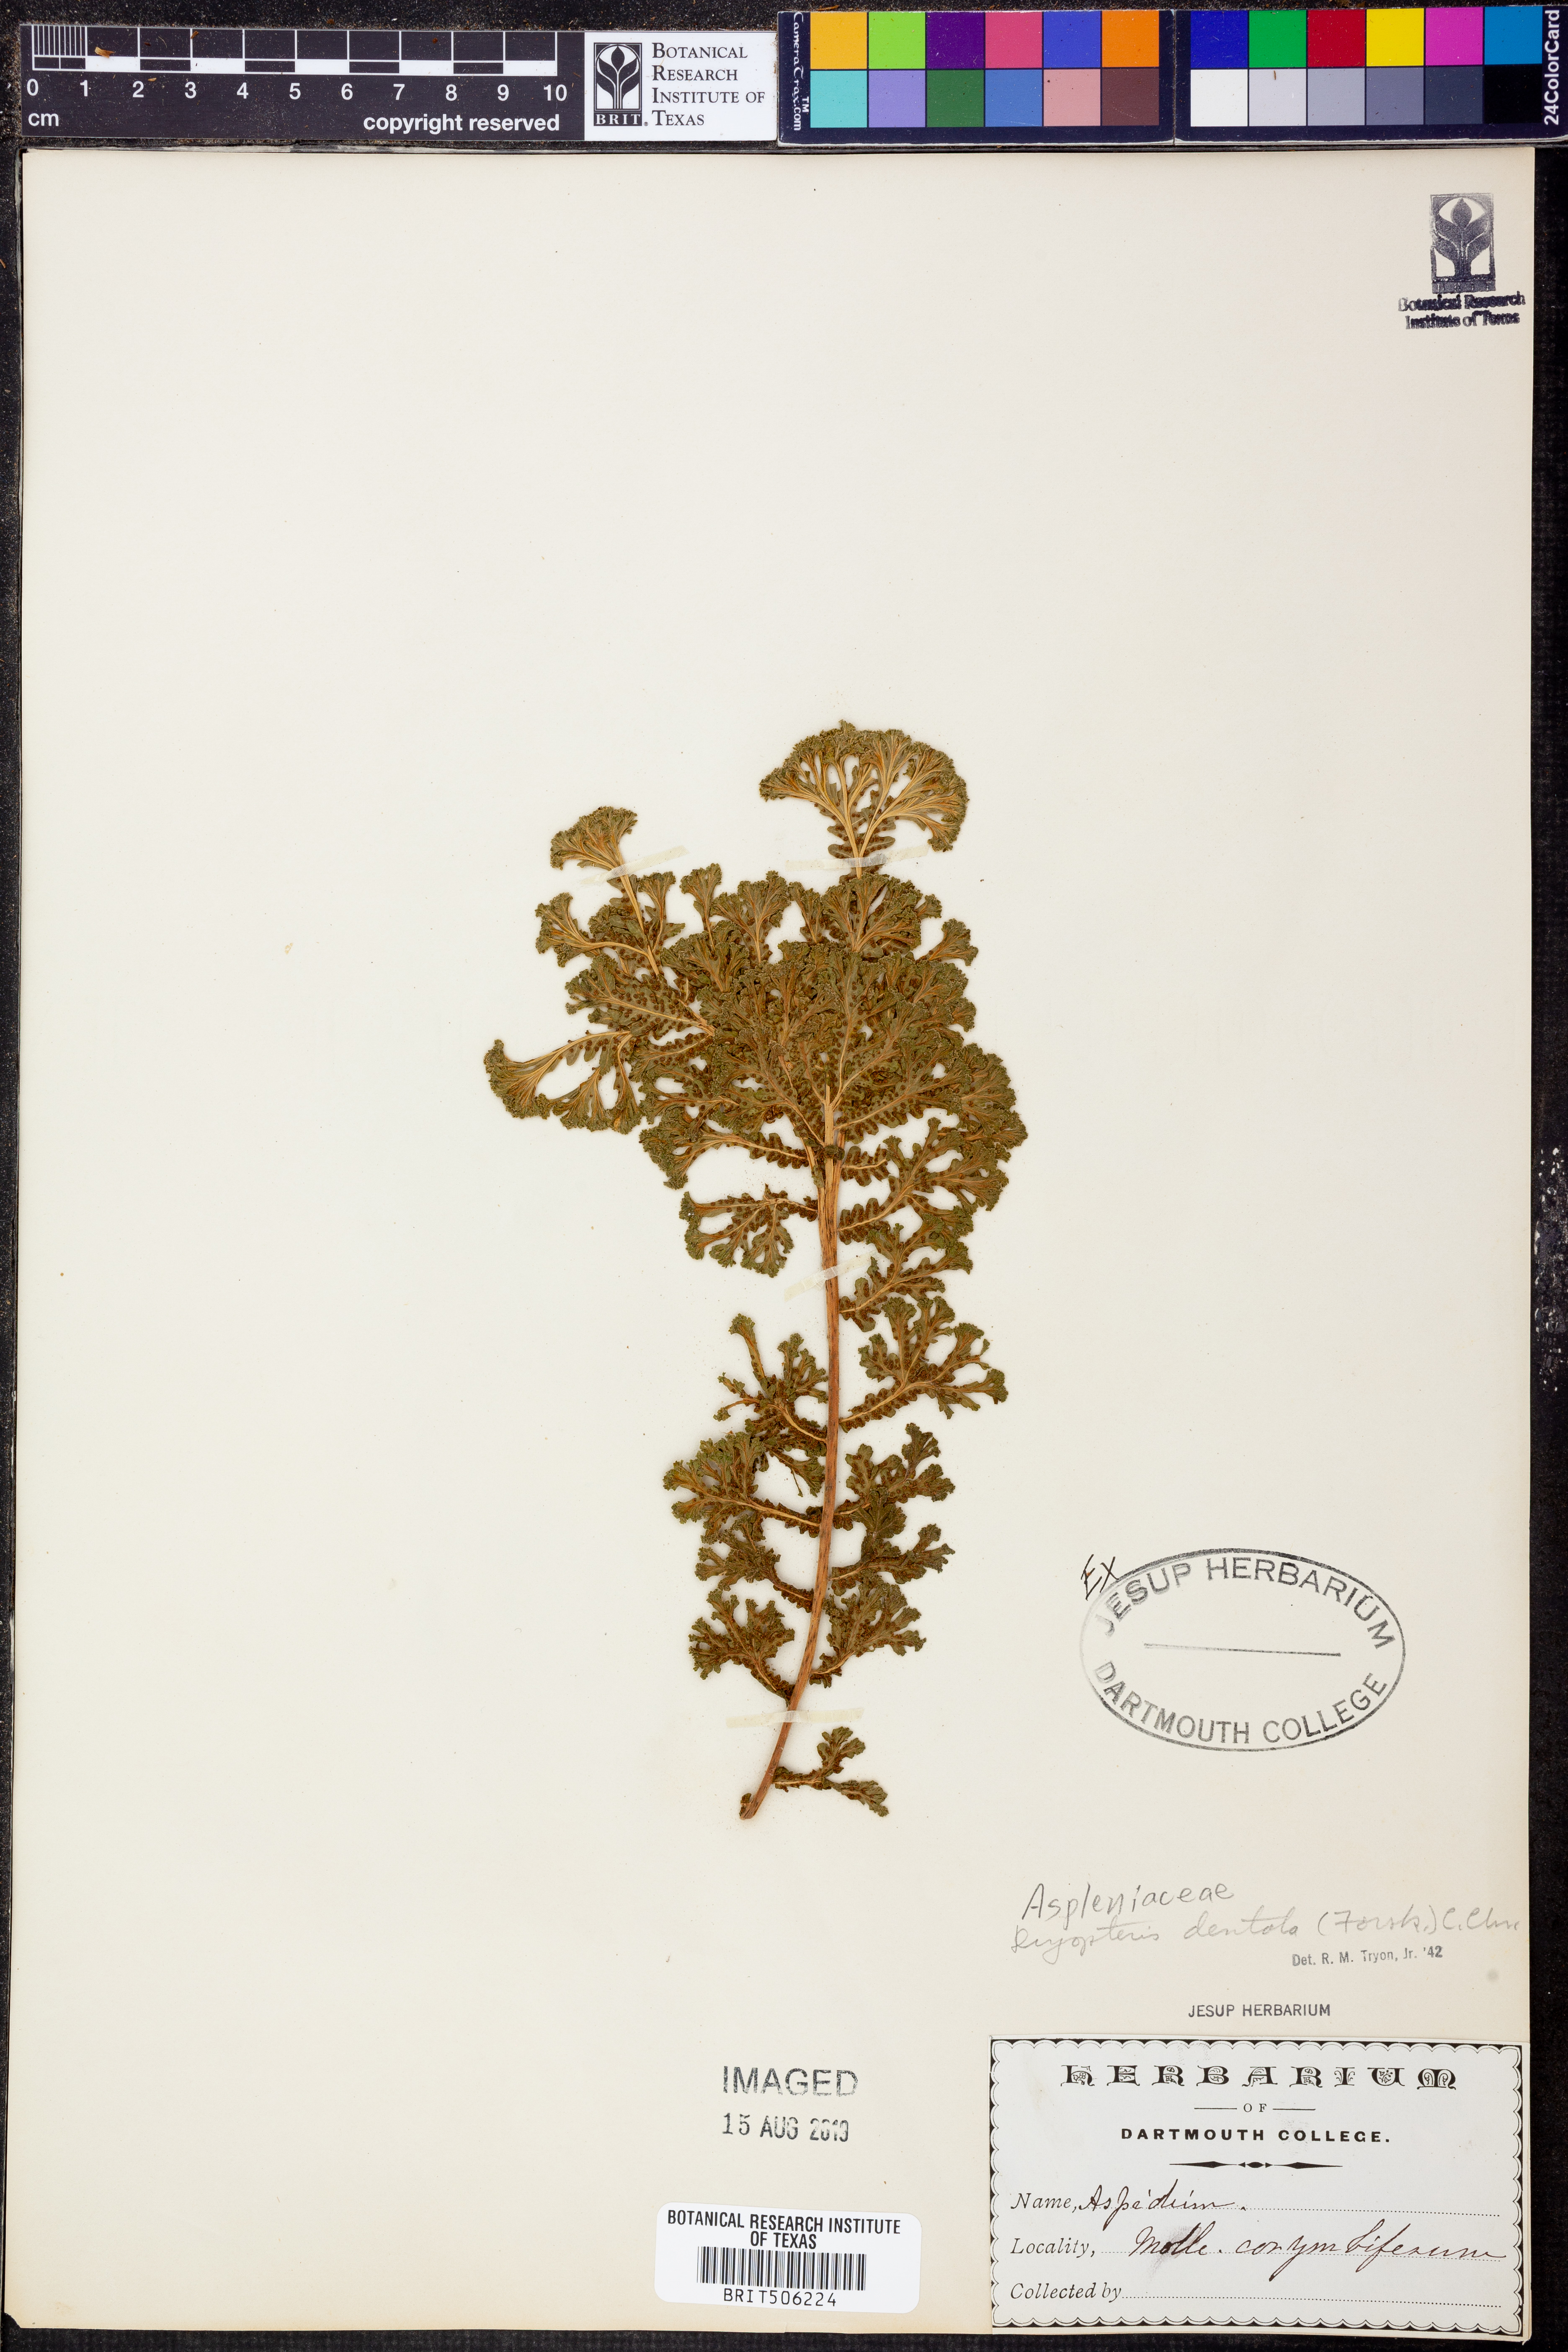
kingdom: Plantae
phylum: Tracheophyta
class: Polypodiopsida
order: Polypodiales
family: Thelypteridaceae
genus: Christella
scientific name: Christella dentata
